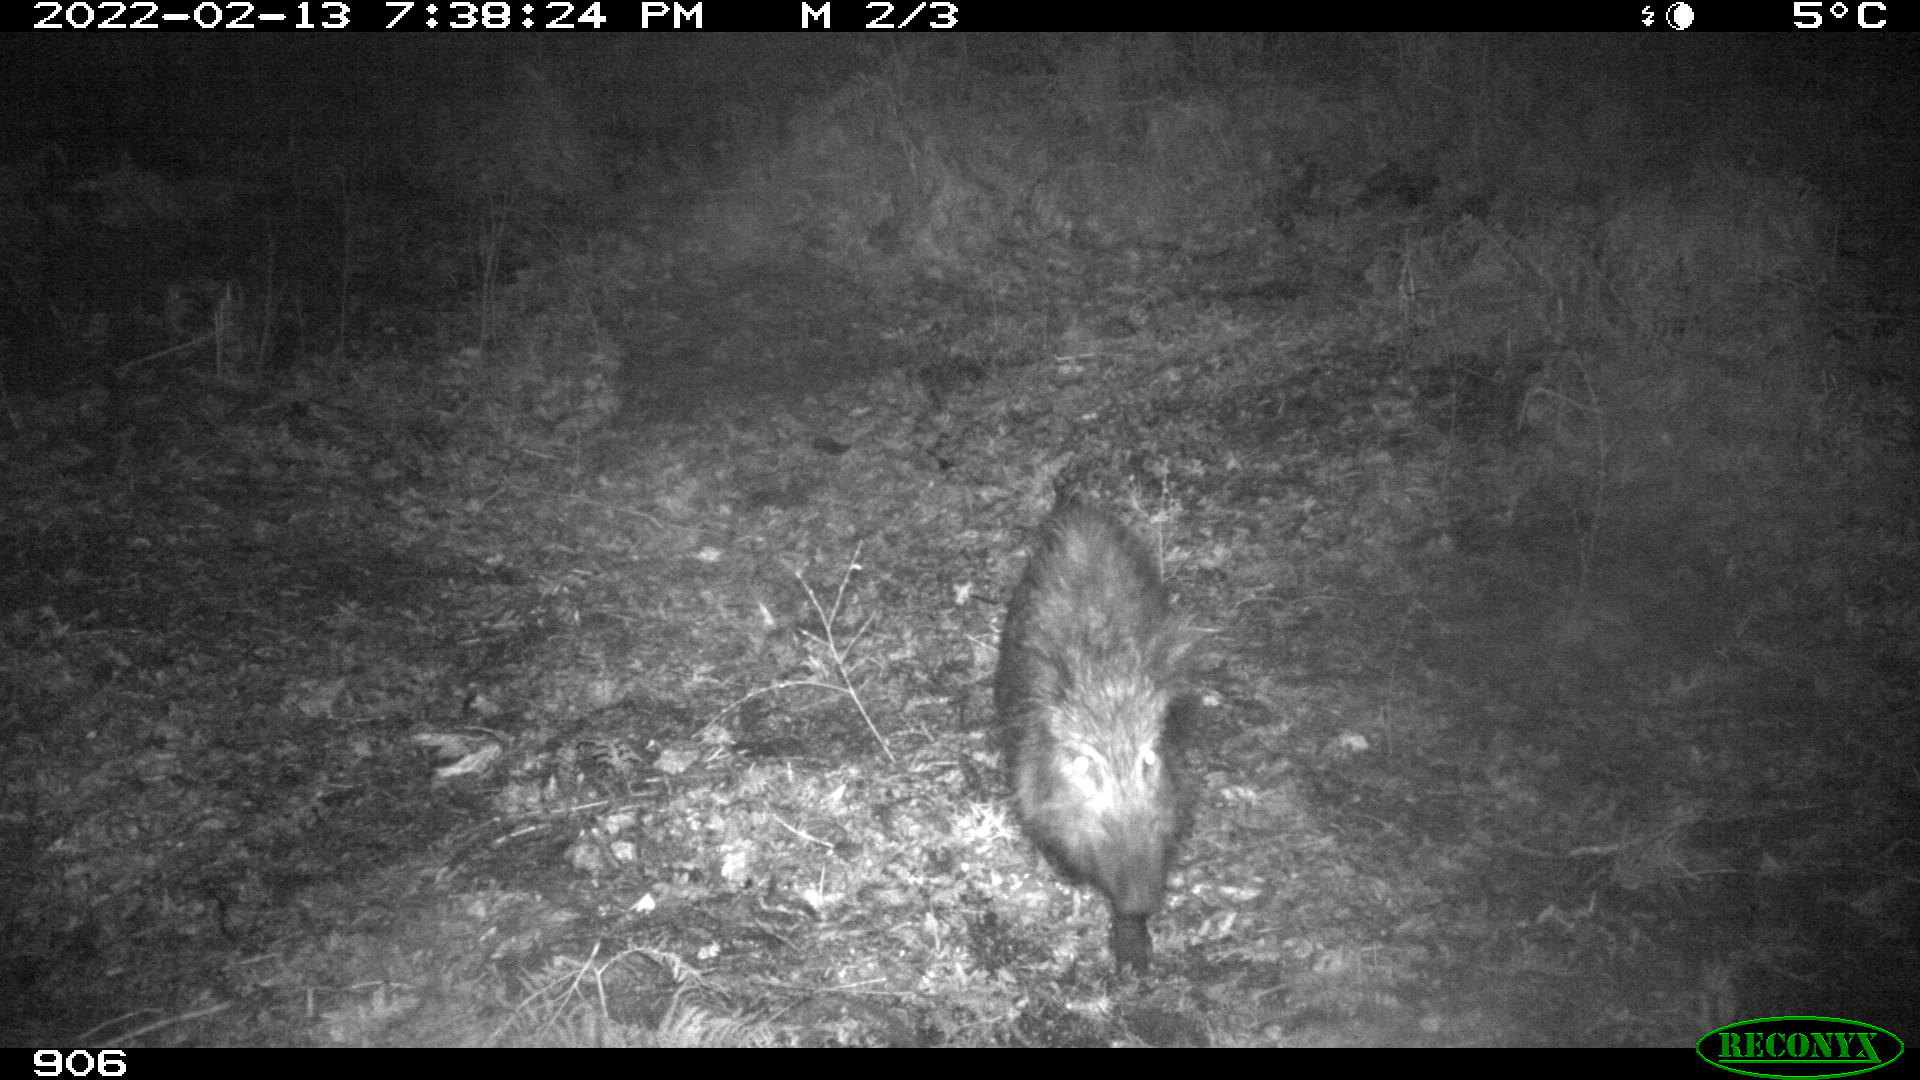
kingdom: Animalia
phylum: Chordata
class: Mammalia
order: Artiodactyla
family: Suidae
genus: Sus
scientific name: Sus scrofa
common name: Wild boar
